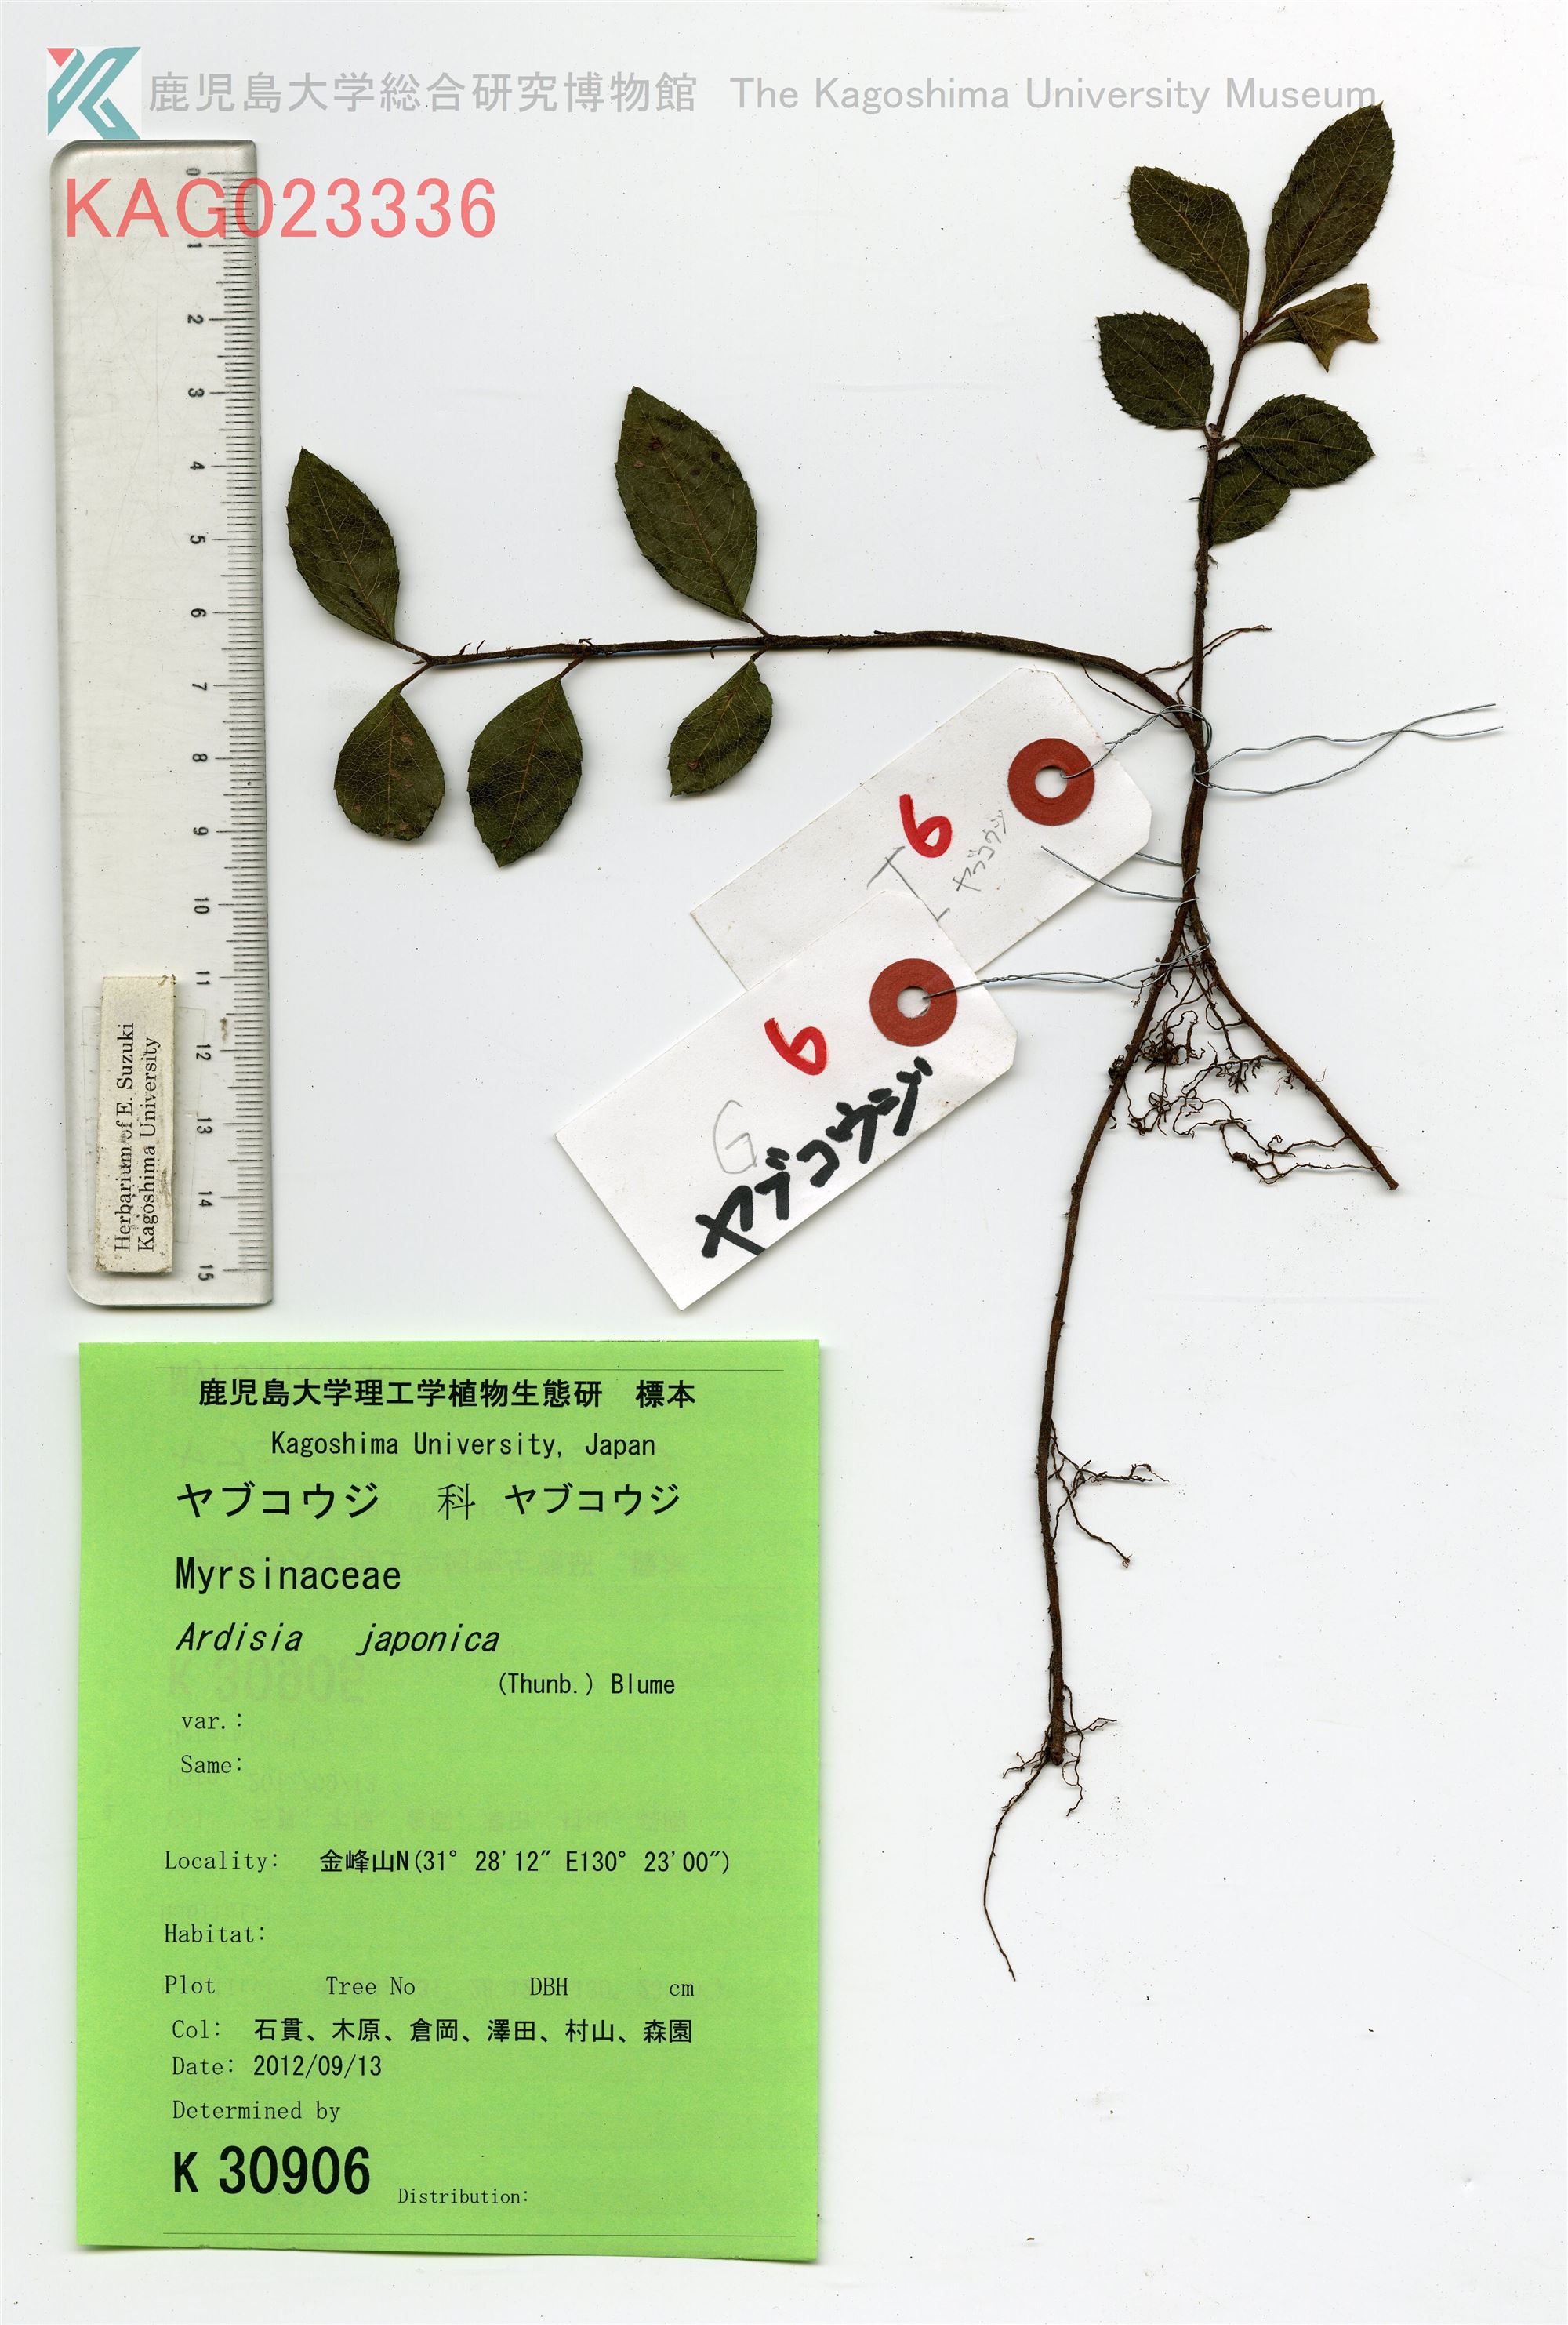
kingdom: Plantae
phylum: Tracheophyta
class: Magnoliopsida
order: Ericales
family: Primulaceae
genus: Ardisia
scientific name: Ardisia japonica
